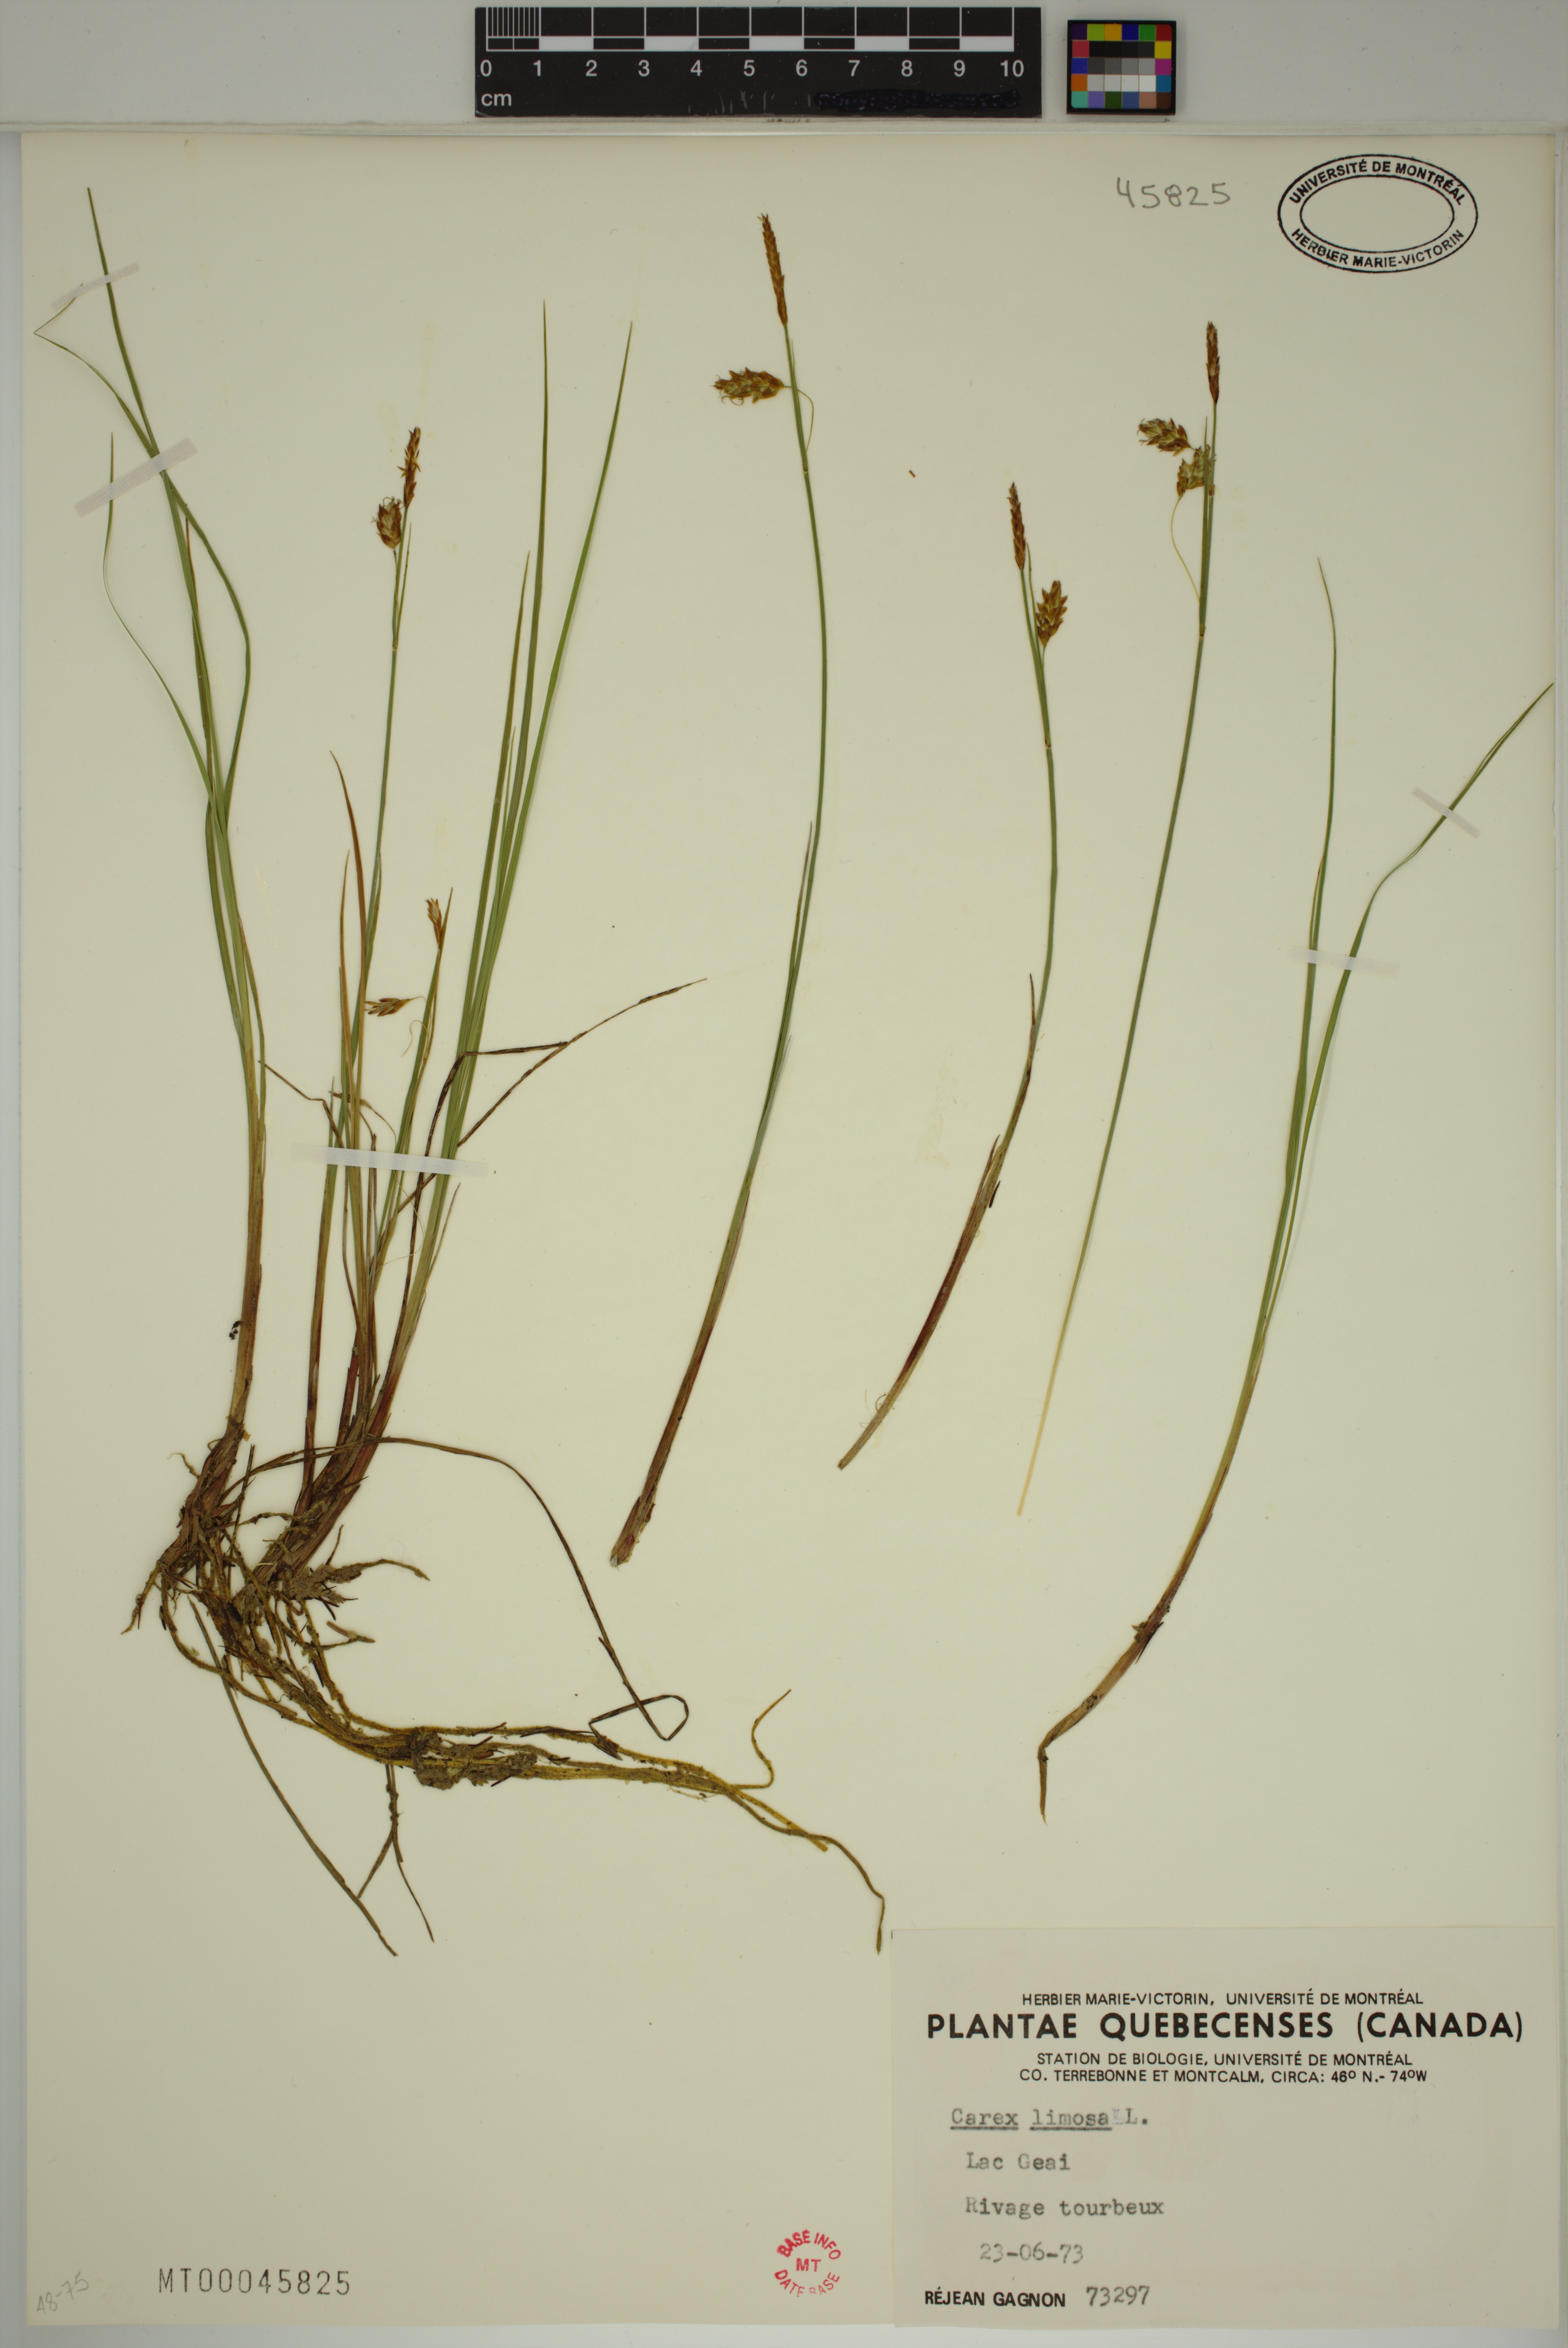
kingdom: Plantae
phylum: Tracheophyta
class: Liliopsida
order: Poales
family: Cyperaceae
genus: Carex
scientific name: Carex limosa
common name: Bog sedge
